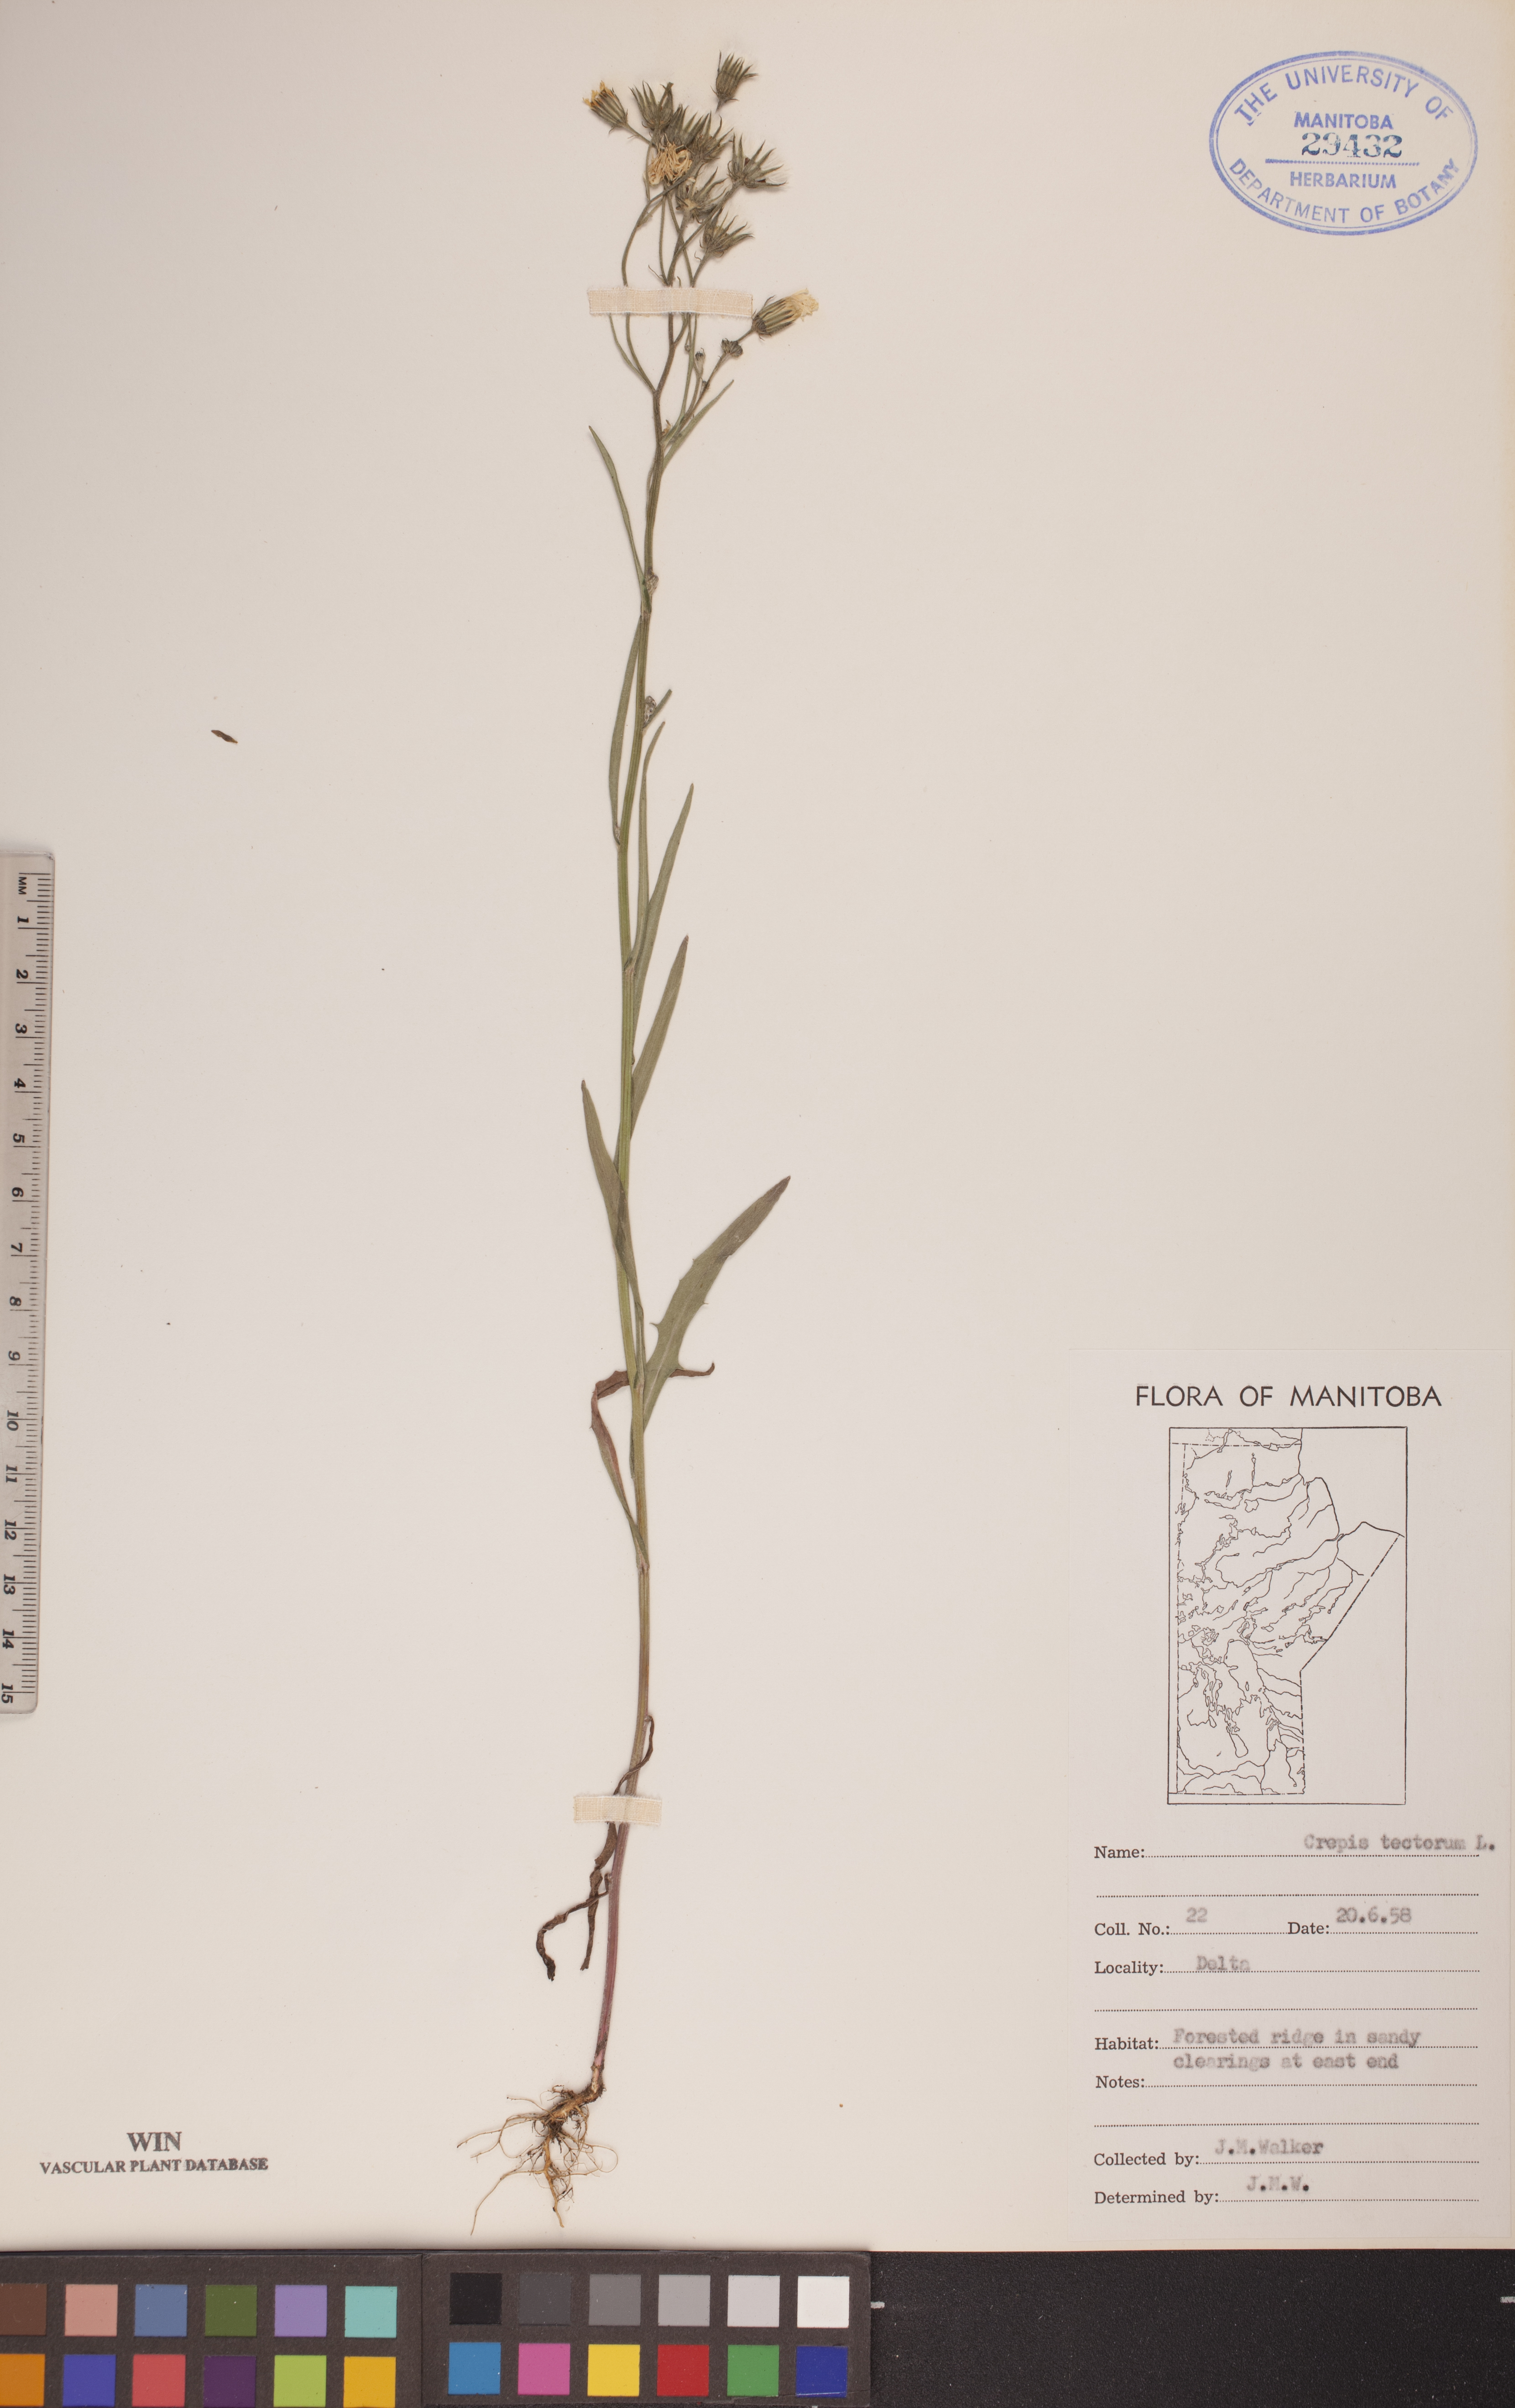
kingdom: Plantae
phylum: Tracheophyta
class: Magnoliopsida
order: Asterales
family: Asteraceae
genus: Crepis
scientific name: Crepis tectorum
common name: Narrow-leaved hawk's-beard
